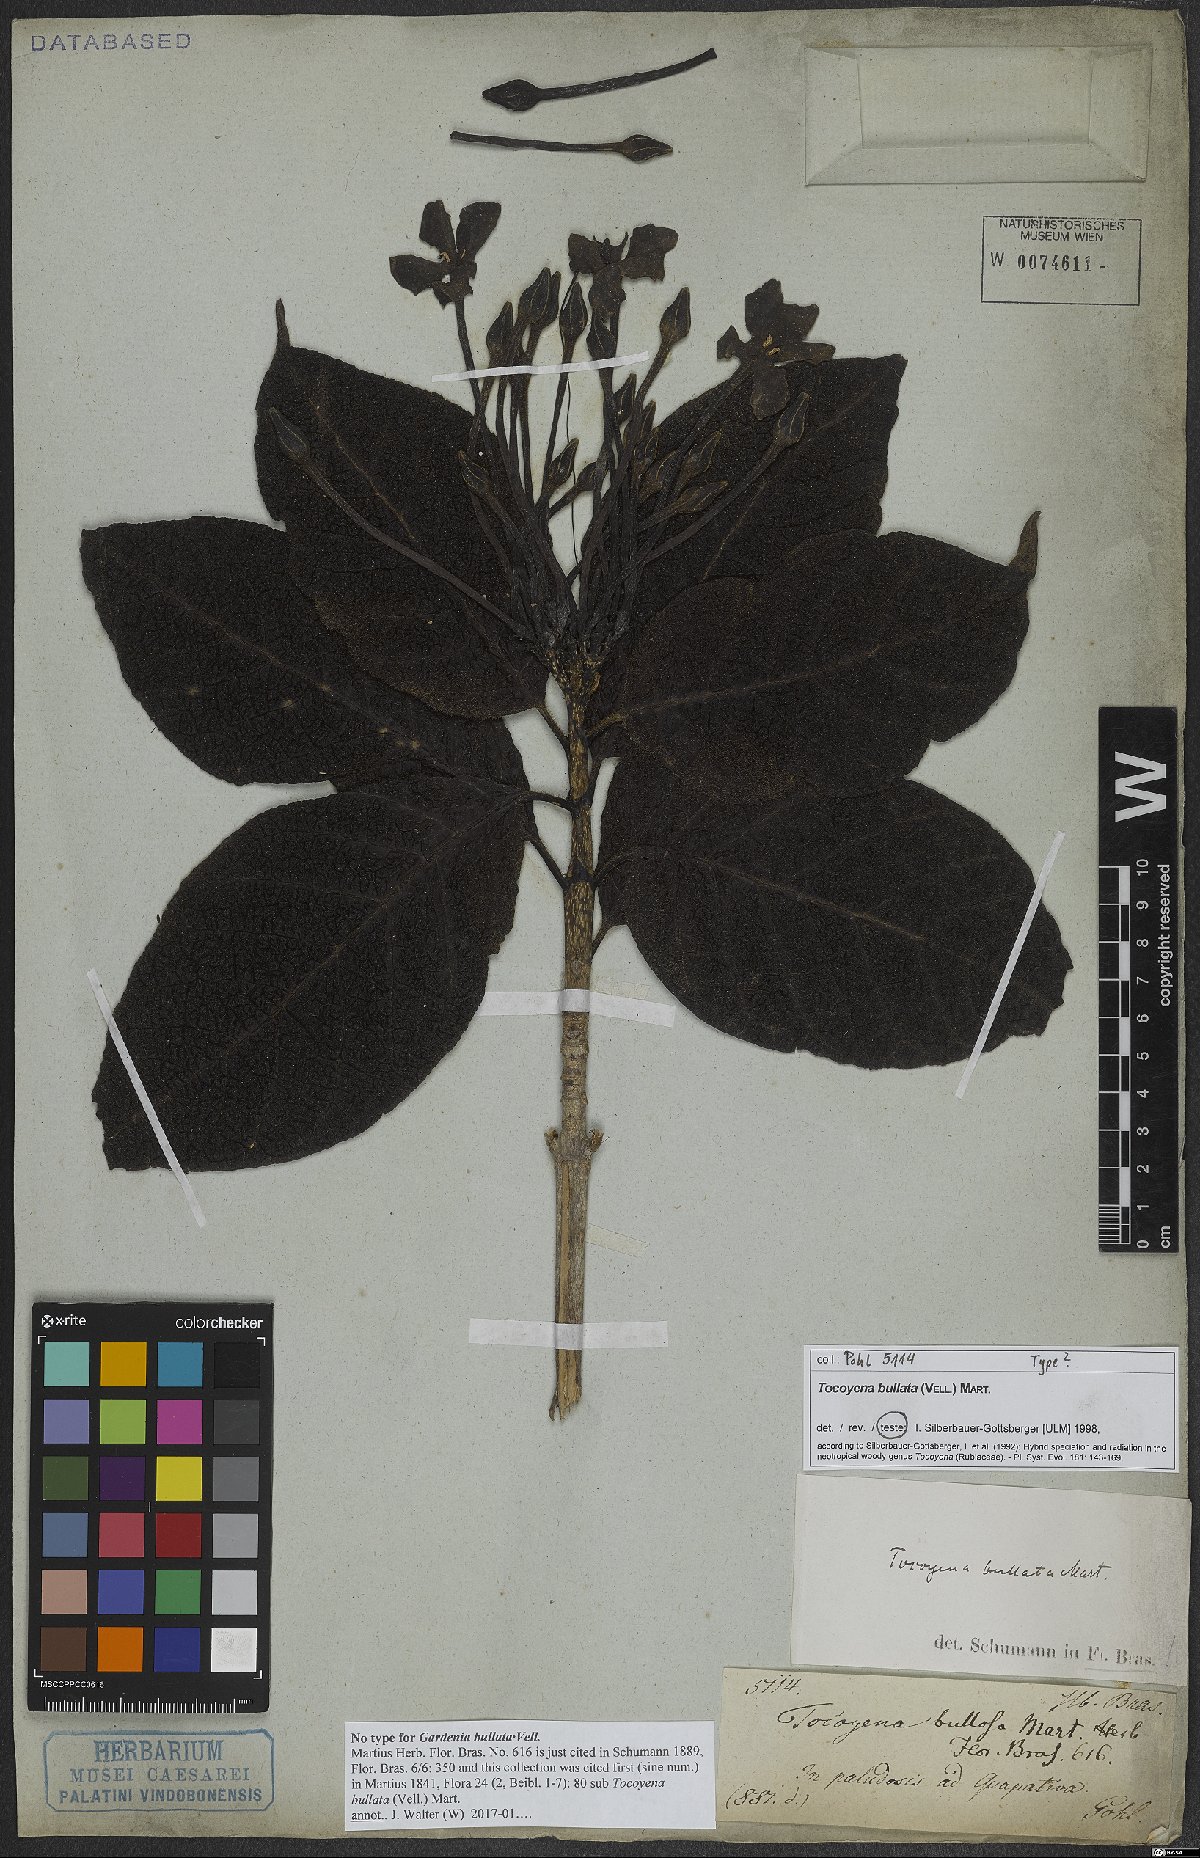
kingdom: Plantae
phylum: Tracheophyta
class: Magnoliopsida
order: Gentianales
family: Rubiaceae
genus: Tocoyena
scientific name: Tocoyena bullata
